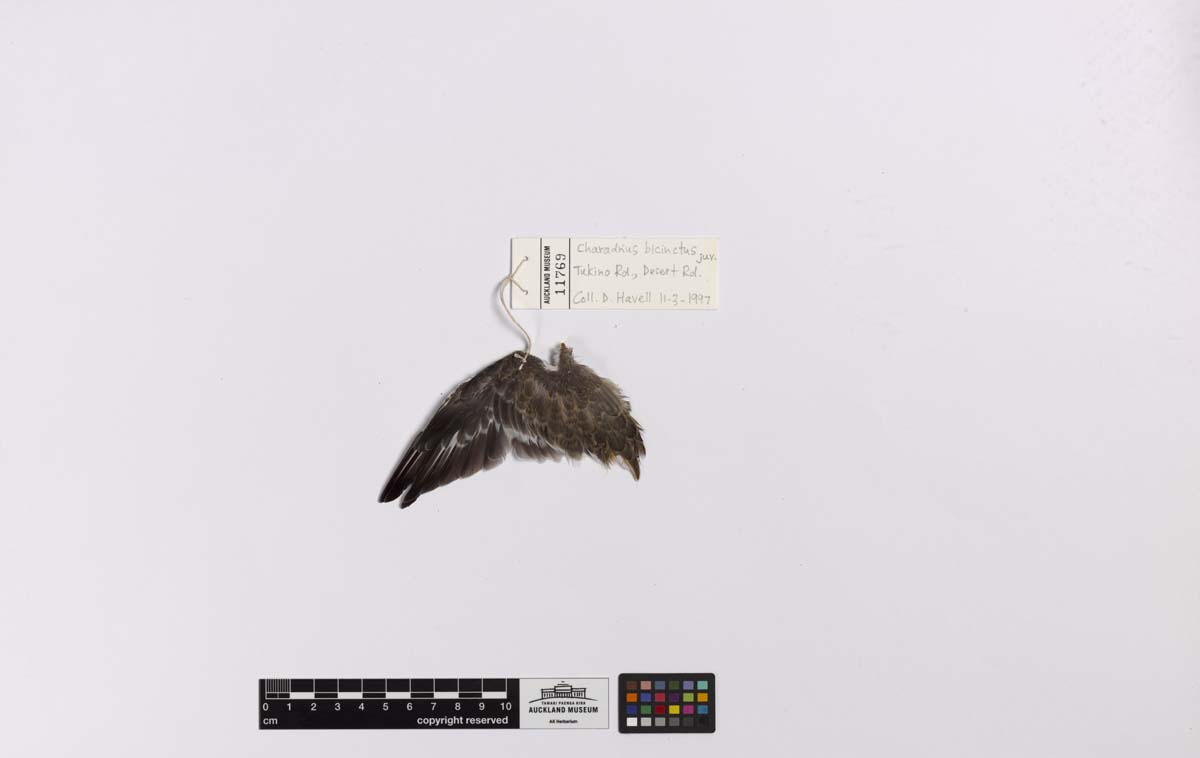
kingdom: Animalia
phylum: Chordata
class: Aves
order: Charadriiformes
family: Charadriidae
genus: Charadrius
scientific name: Charadrius bicinctus
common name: Double-banded plover
